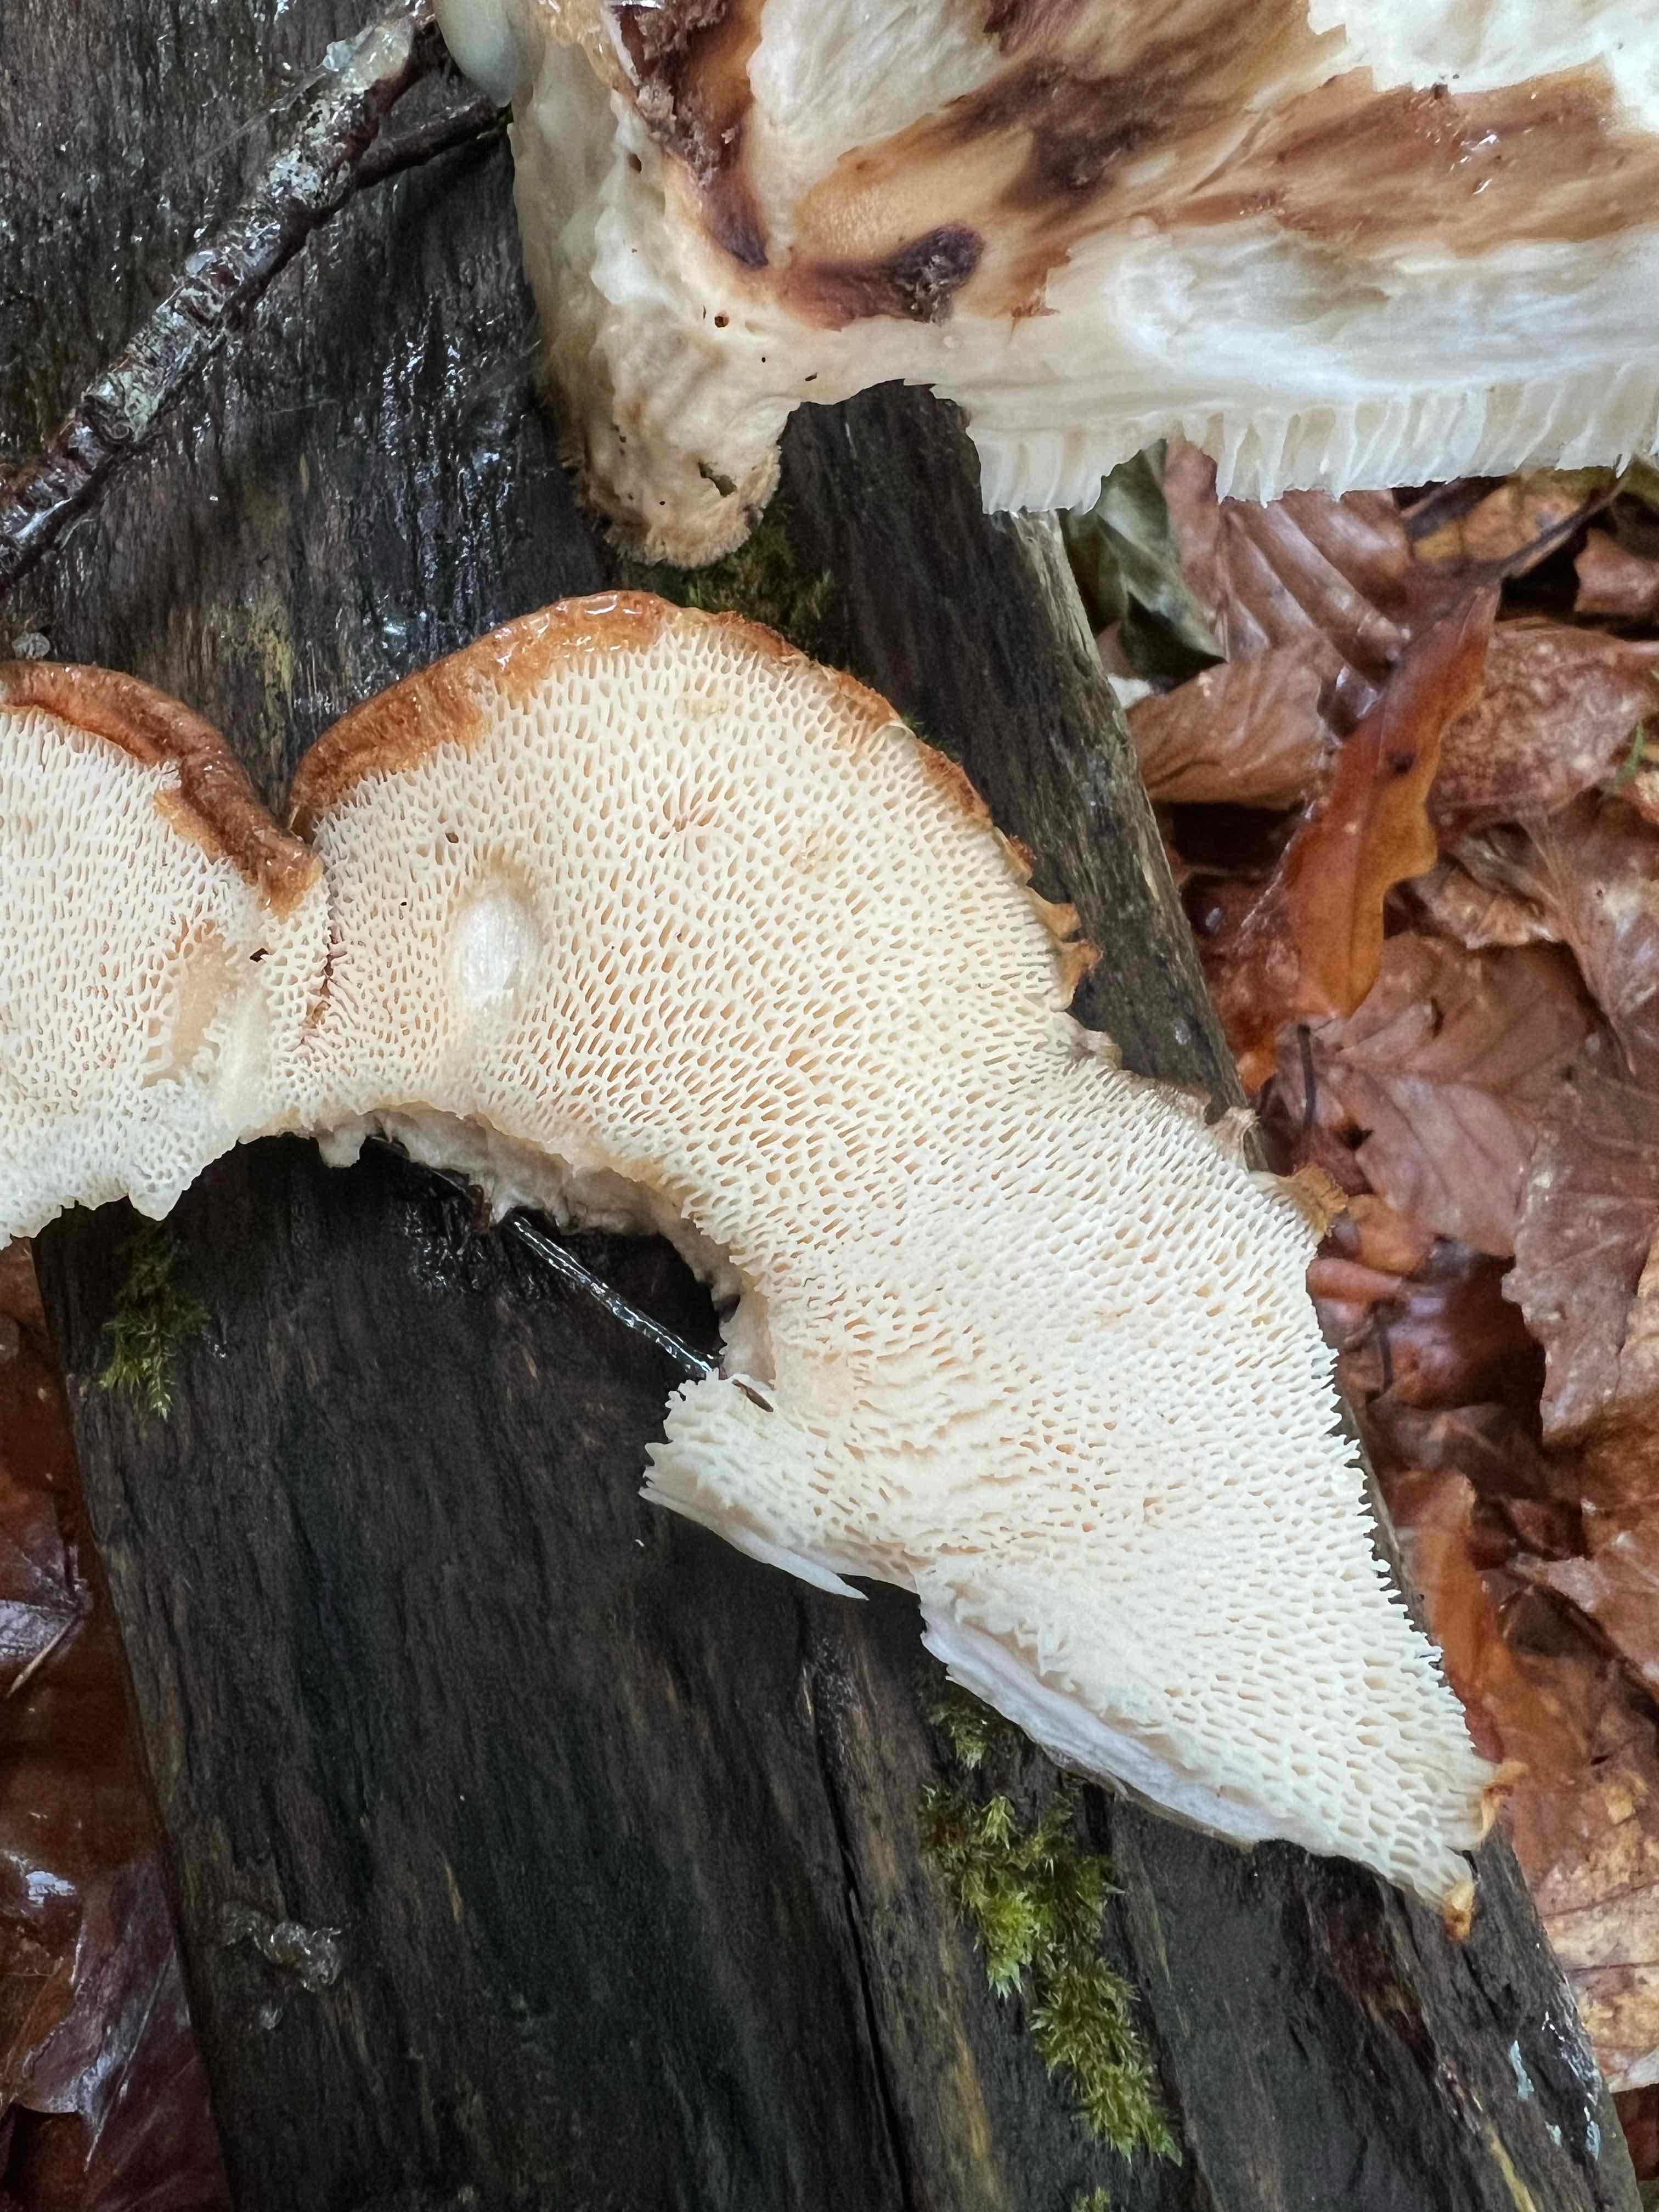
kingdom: Fungi
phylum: Basidiomycota
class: Agaricomycetes
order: Polyporales
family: Polyporaceae
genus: Polyporus
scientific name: Polyporus tuberaster
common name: knoldet stilkporesvamp
